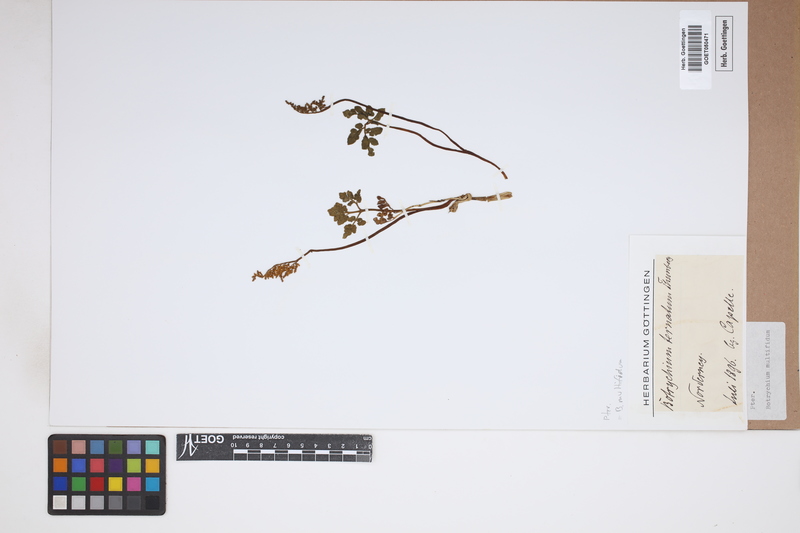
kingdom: Plantae
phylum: Tracheophyta
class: Polypodiopsida
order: Ophioglossales
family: Ophioglossaceae
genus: Sceptridium
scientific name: Sceptridium multifidum
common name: Leathery grape fern
